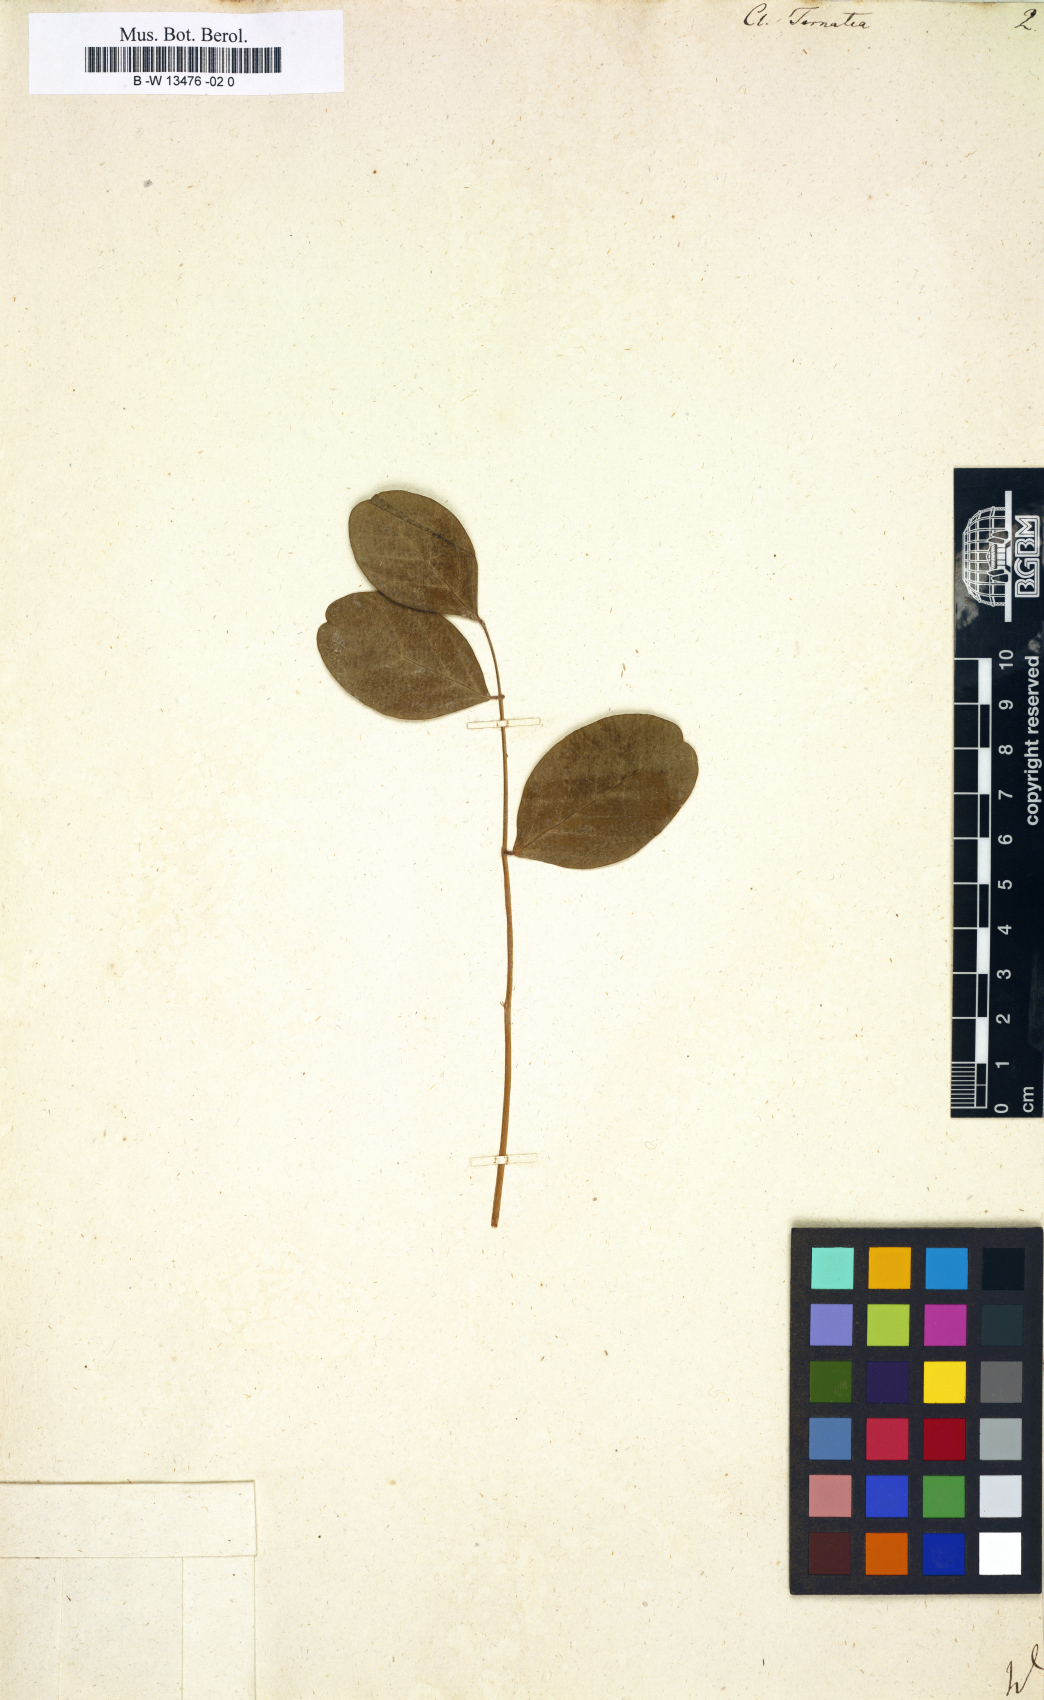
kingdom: Plantae
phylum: Tracheophyta
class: Magnoliopsida
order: Fabales
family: Fabaceae
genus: Clitoria
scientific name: Clitoria ternatea
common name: Asian pigeonwings
